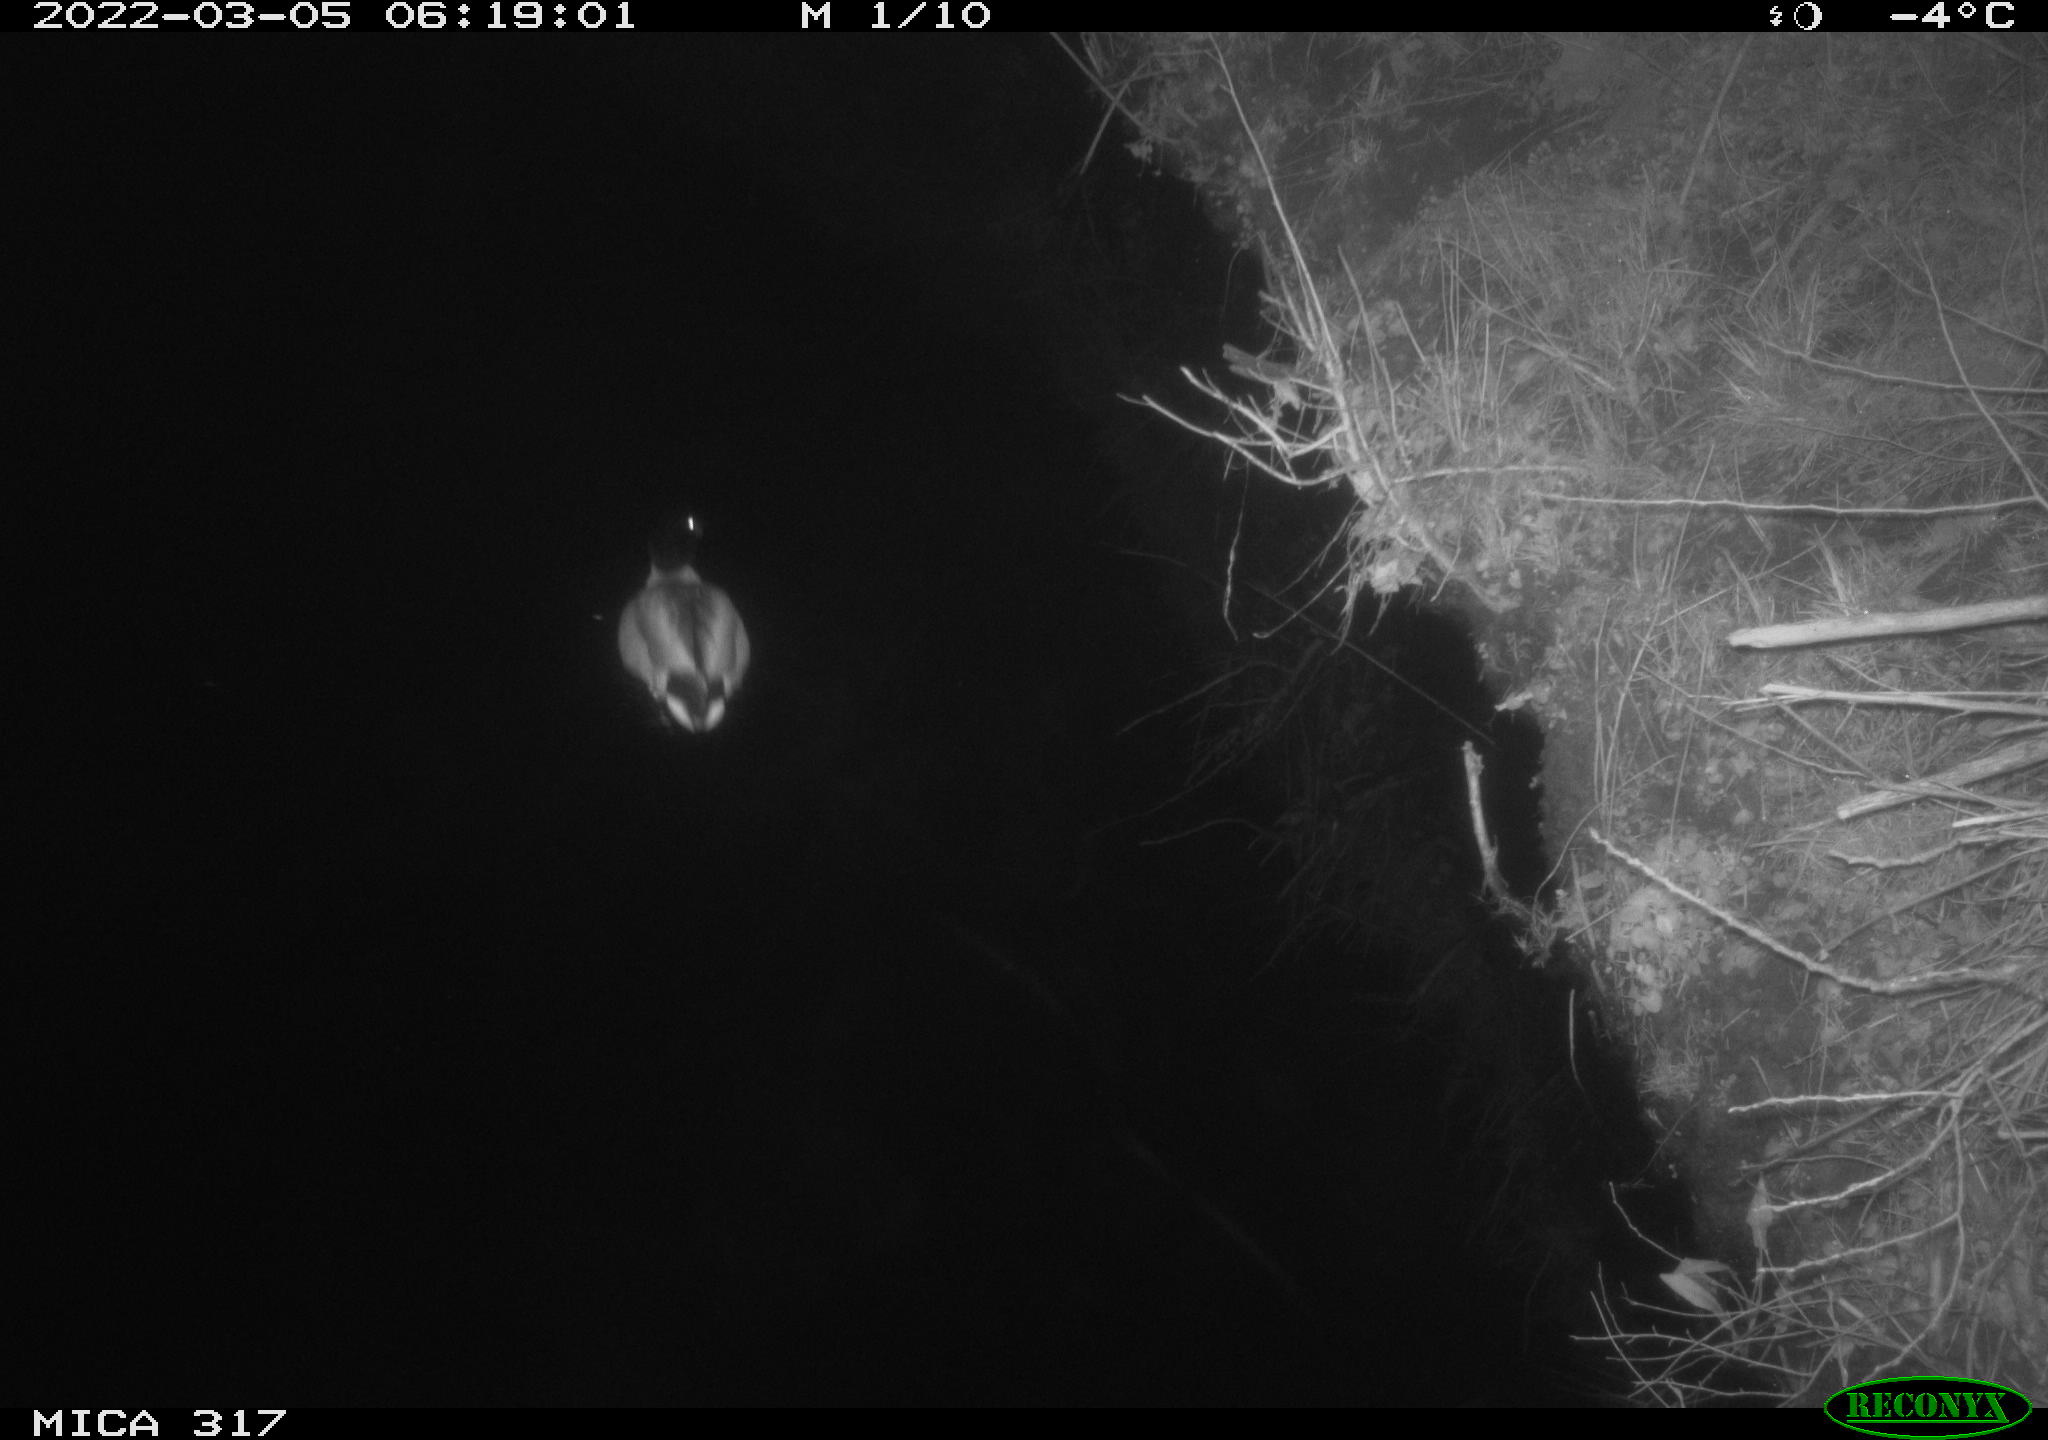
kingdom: Animalia
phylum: Chordata
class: Aves
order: Anseriformes
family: Anatidae
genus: Anas
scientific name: Anas platyrhynchos
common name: Mallard
